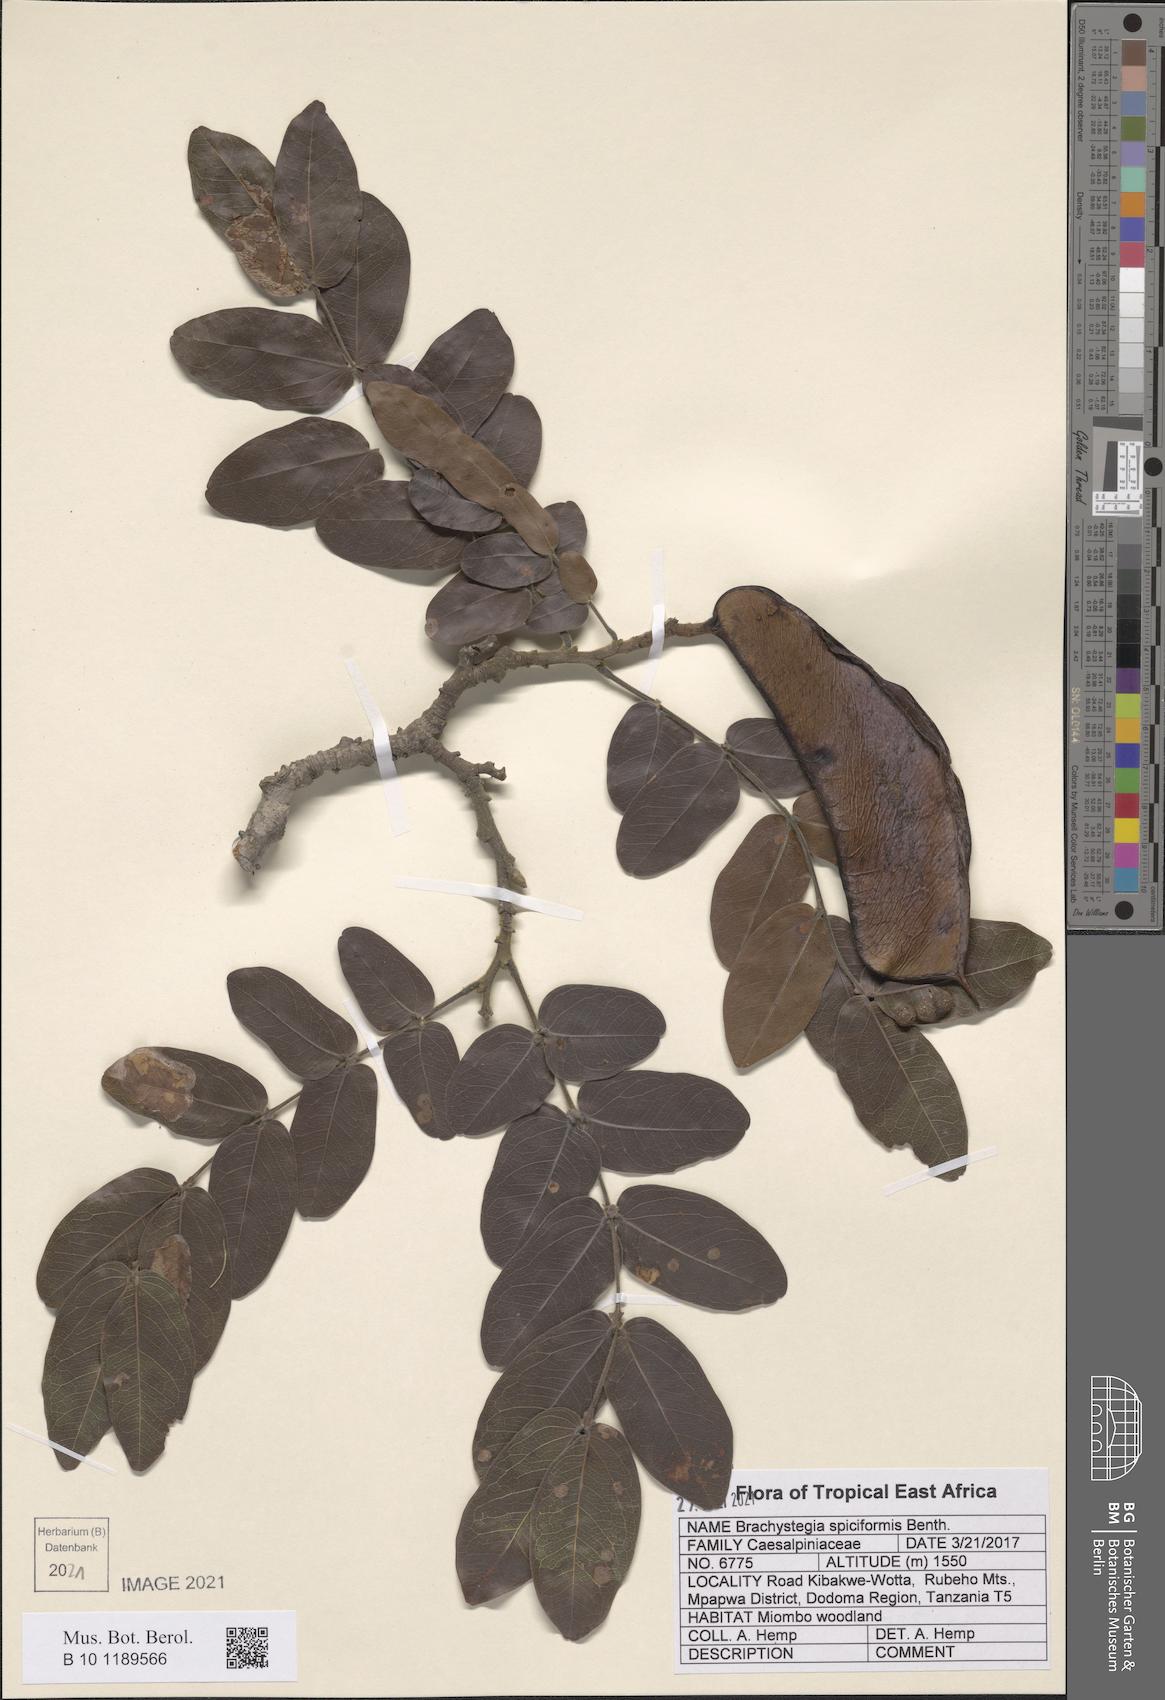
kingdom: Plantae
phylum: Tracheophyta
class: Magnoliopsida
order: Fabales
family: Fabaceae
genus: Brachystegia
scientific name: Brachystegia spiciformis
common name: Zebrawood
